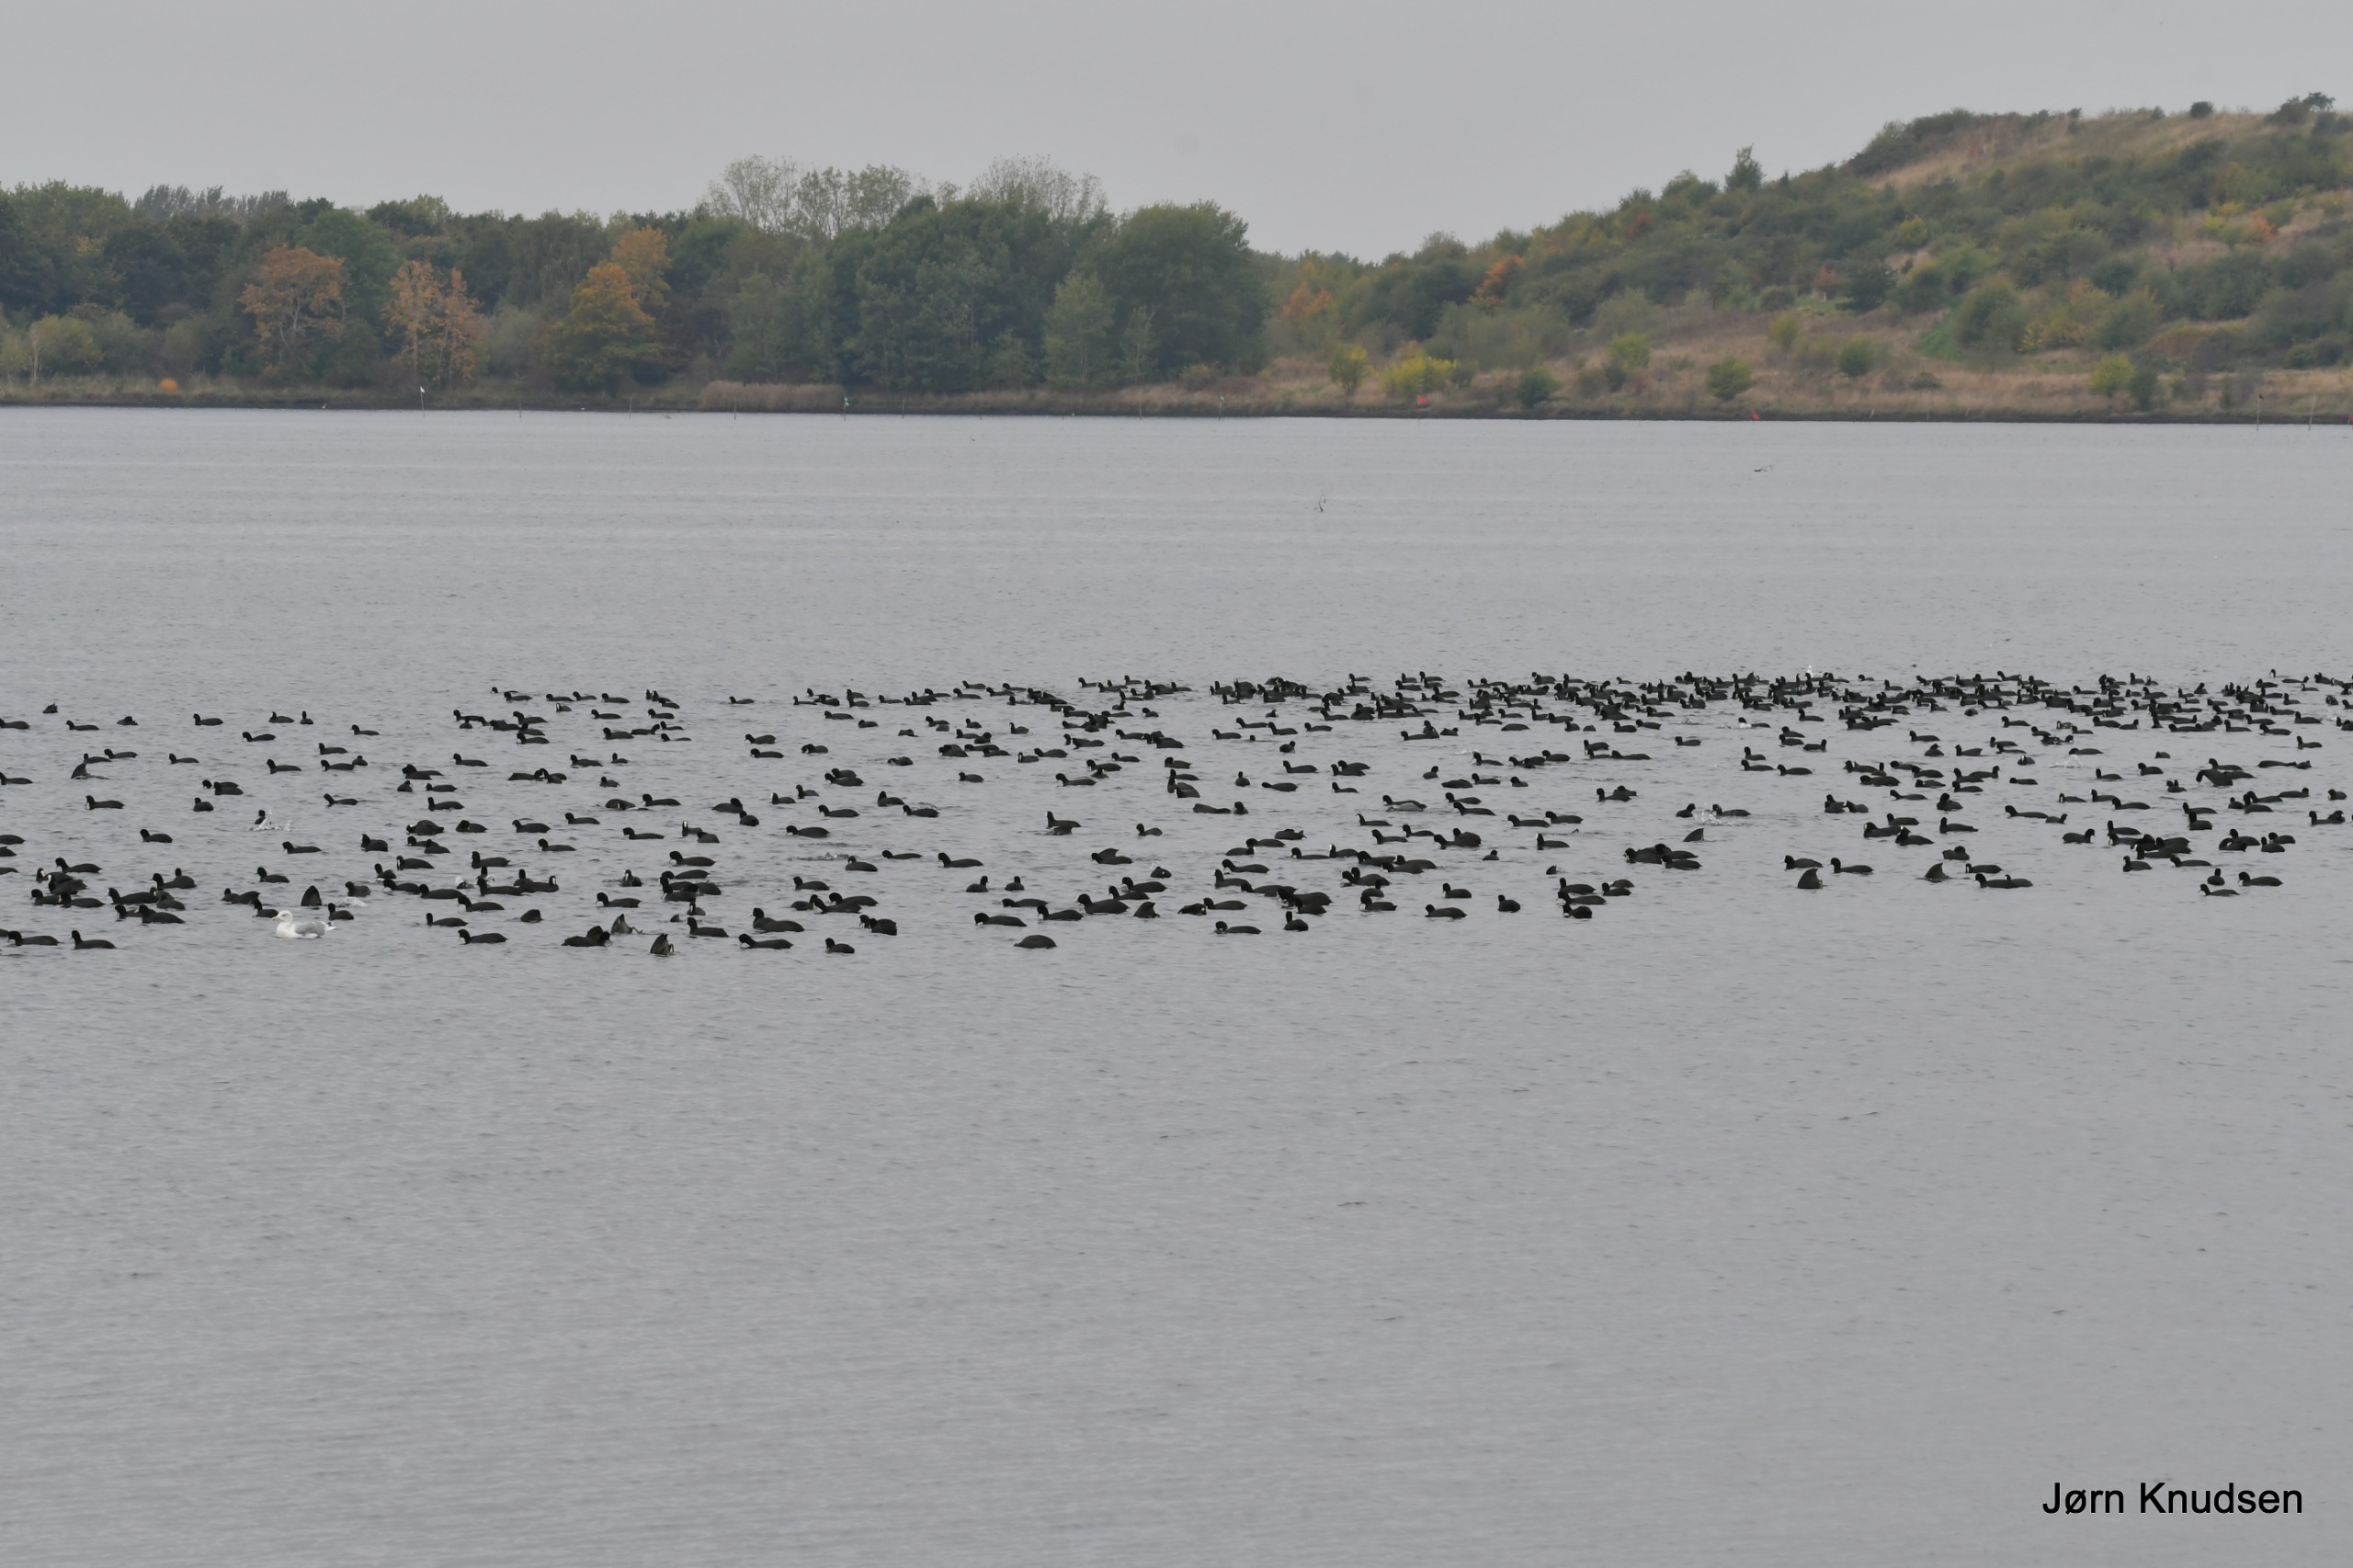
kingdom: Animalia
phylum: Chordata
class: Aves
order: Gruiformes
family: Rallidae
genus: Fulica
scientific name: Fulica atra
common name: Blishøne
